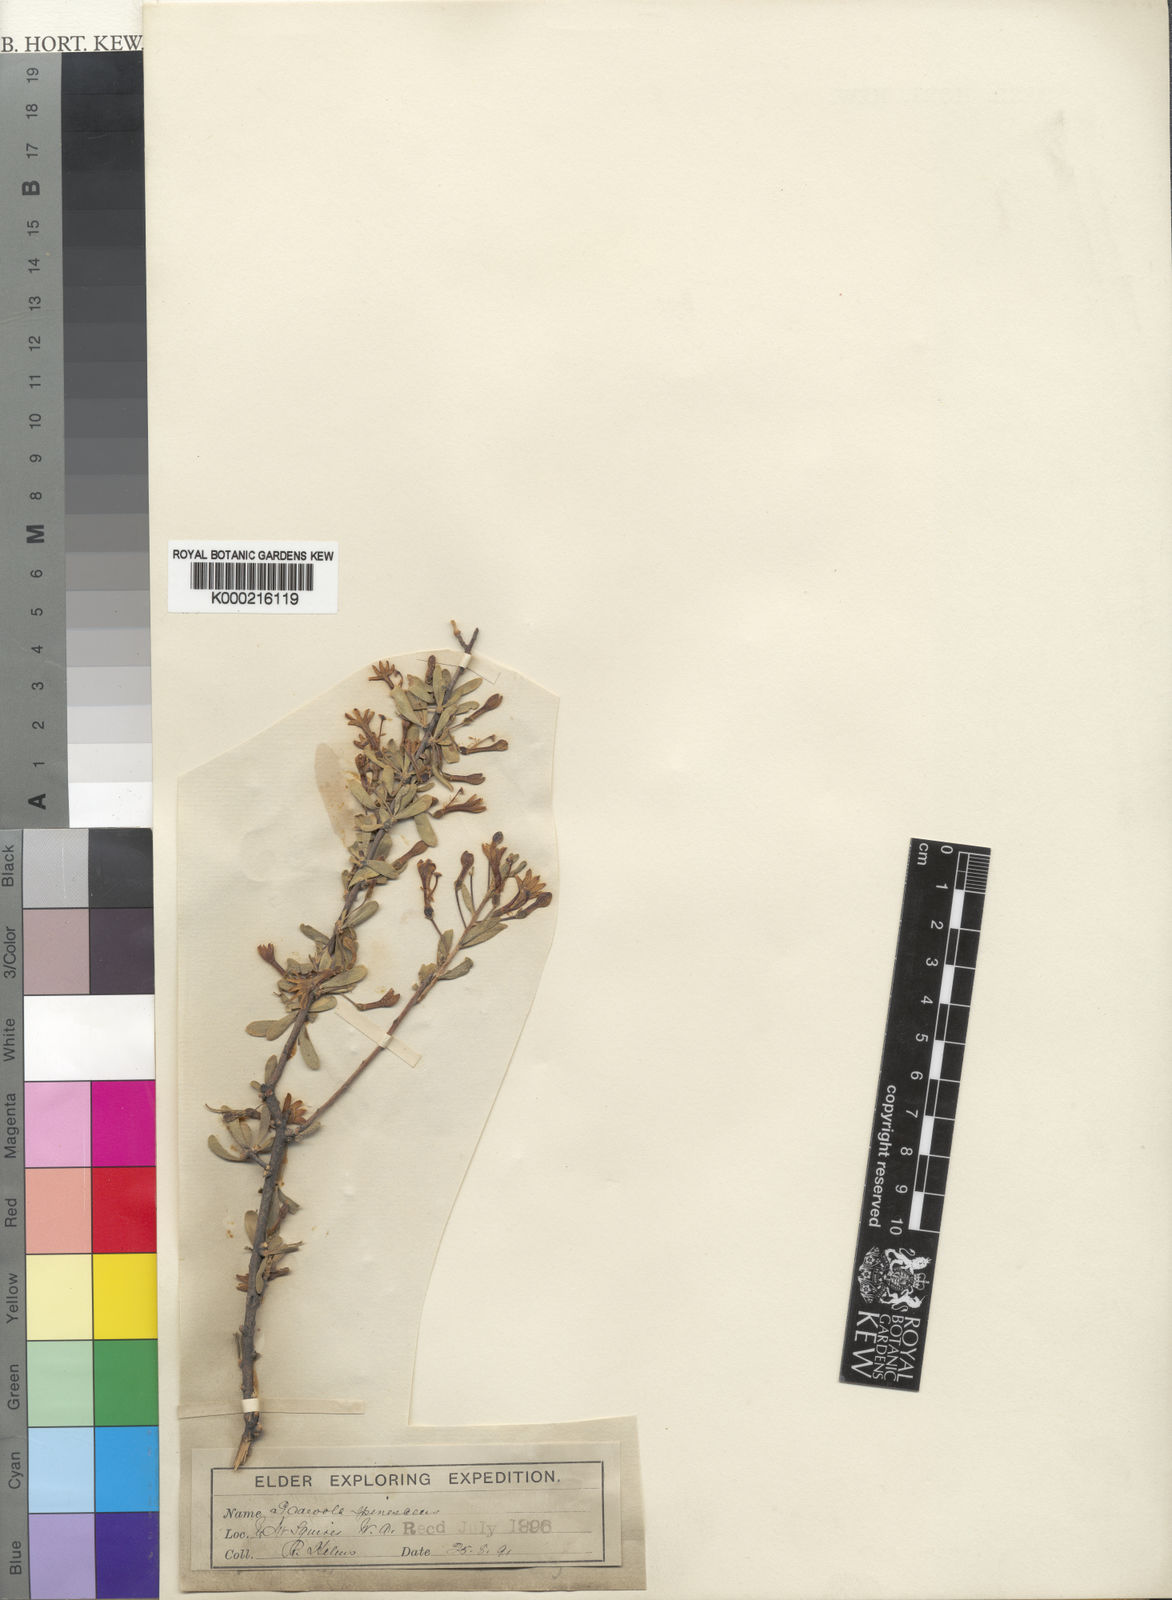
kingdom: Plantae
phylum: Tracheophyta
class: Magnoliopsida
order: Asterales
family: Goodeniaceae
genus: Scaevola
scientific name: Scaevola spinescens
